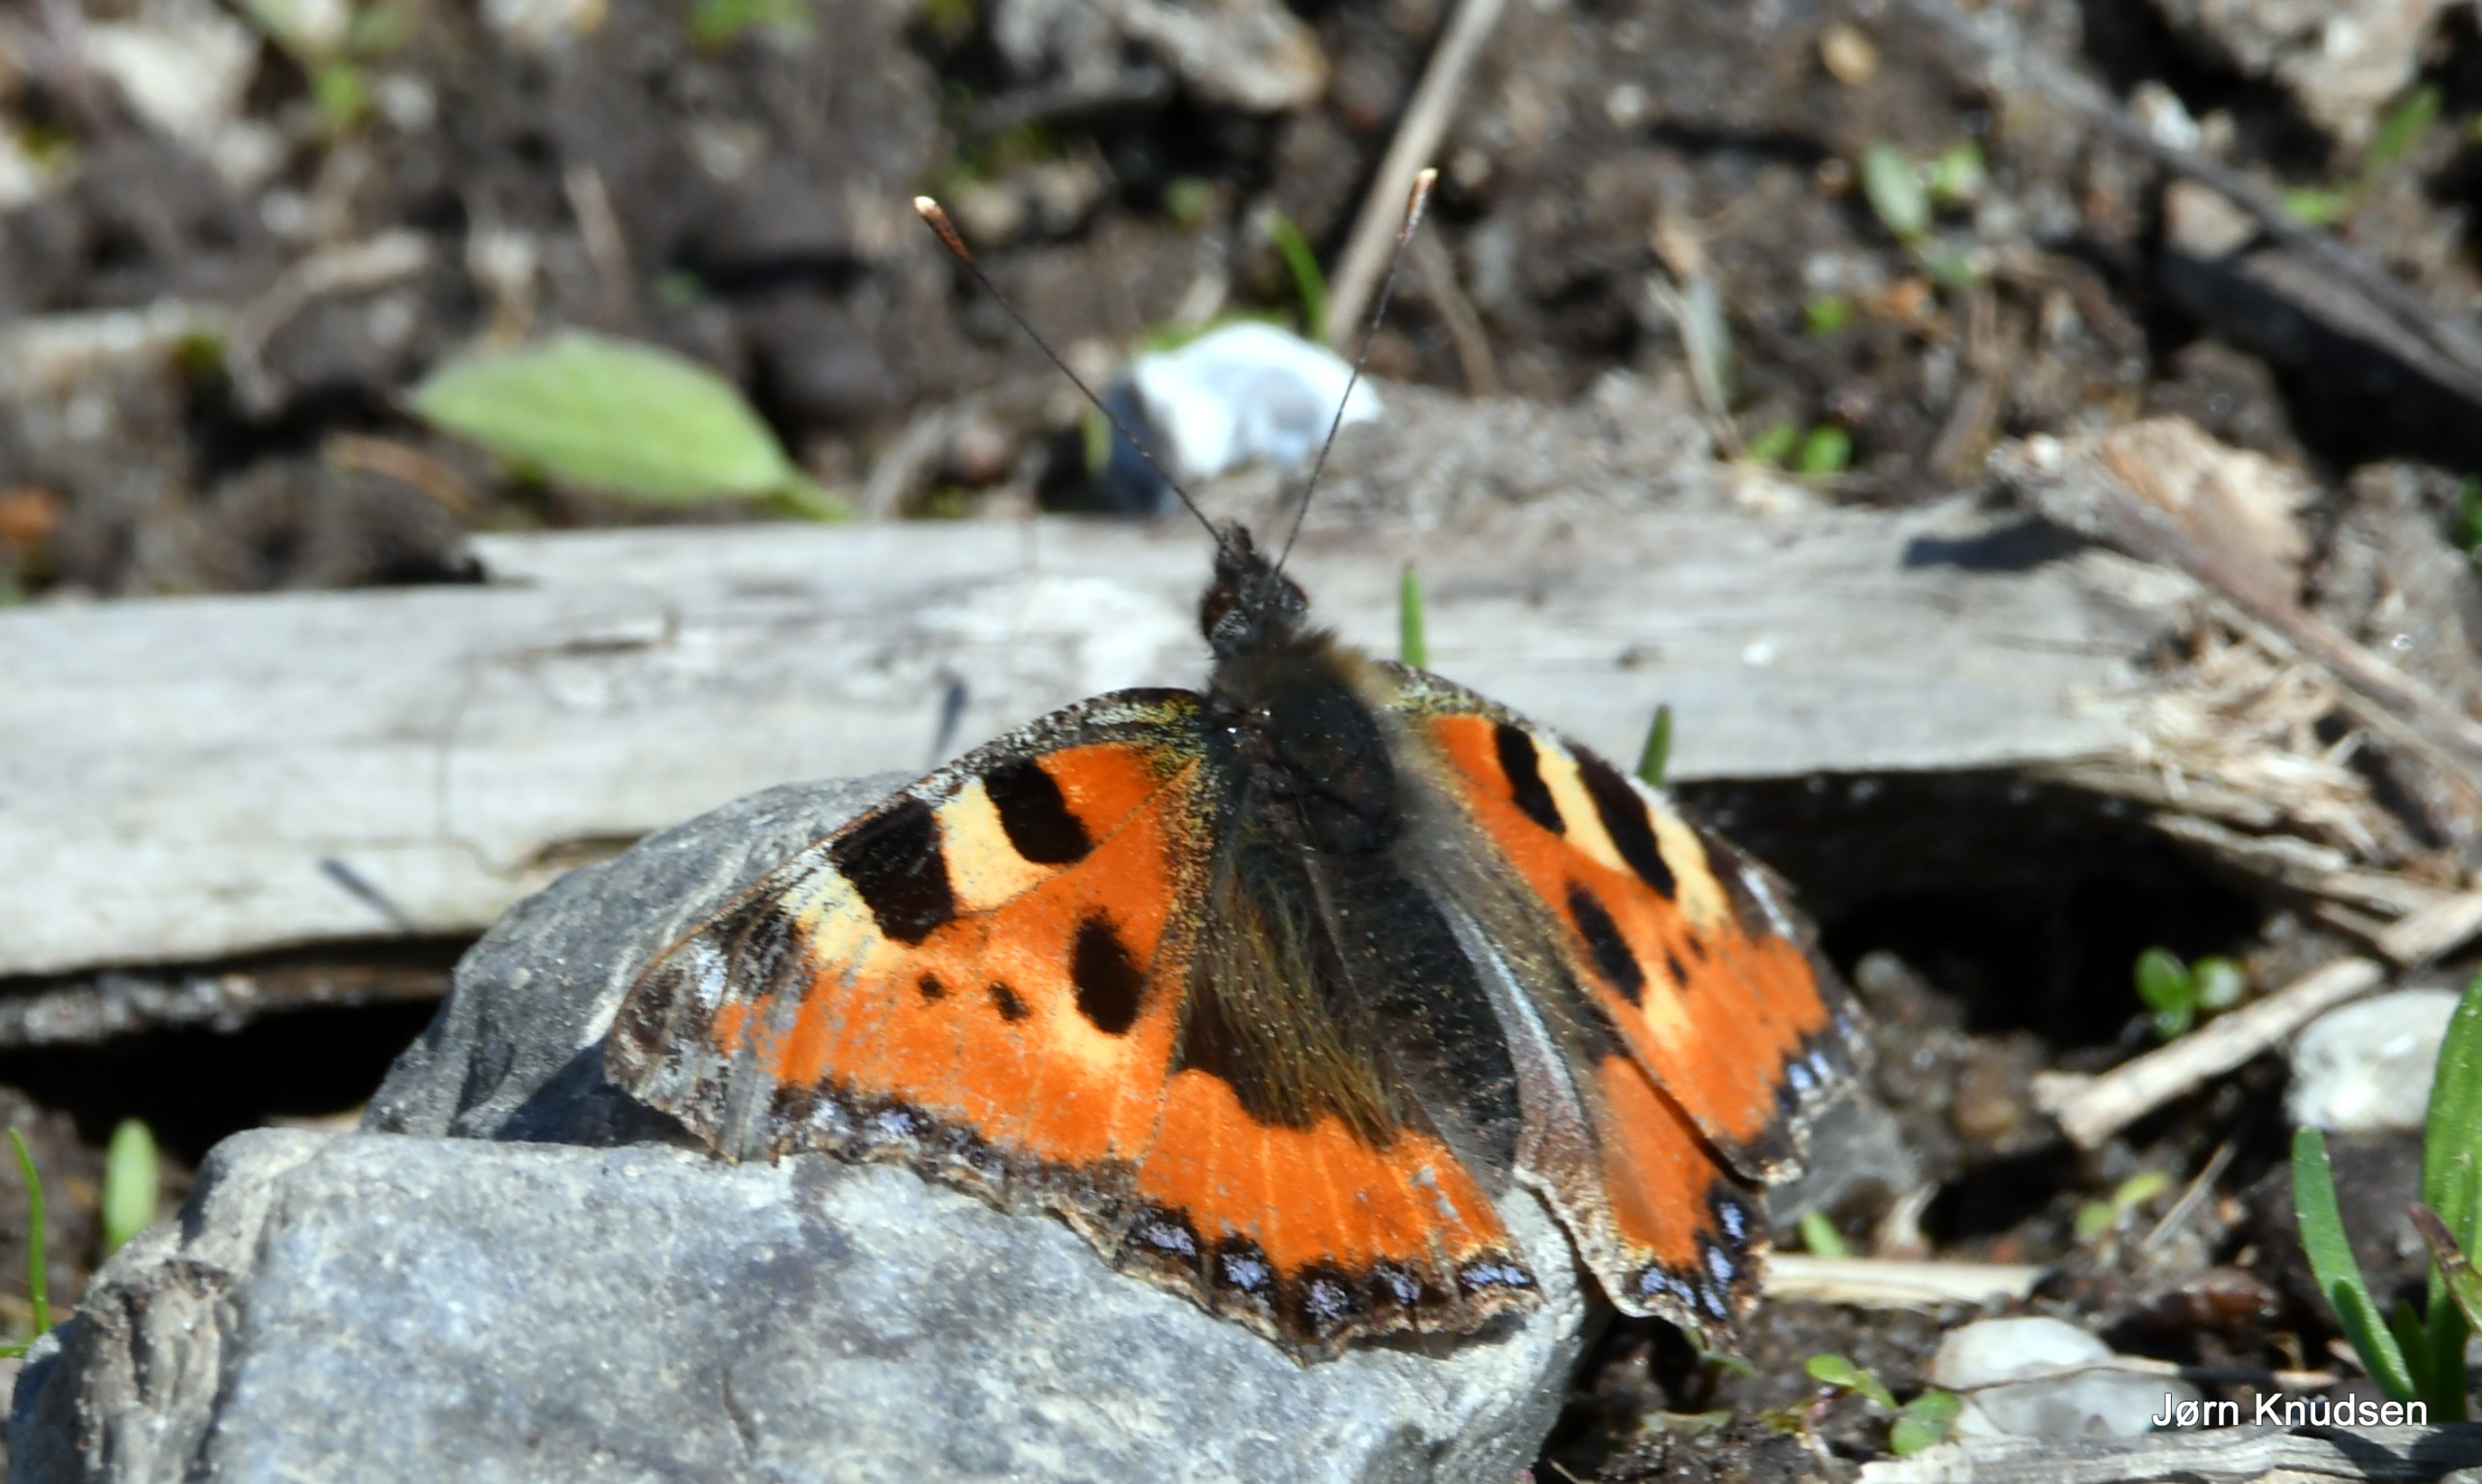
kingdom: Animalia
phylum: Arthropoda
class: Insecta
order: Lepidoptera
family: Nymphalidae
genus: Aglais
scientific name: Aglais urticae
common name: Nældens takvinge
